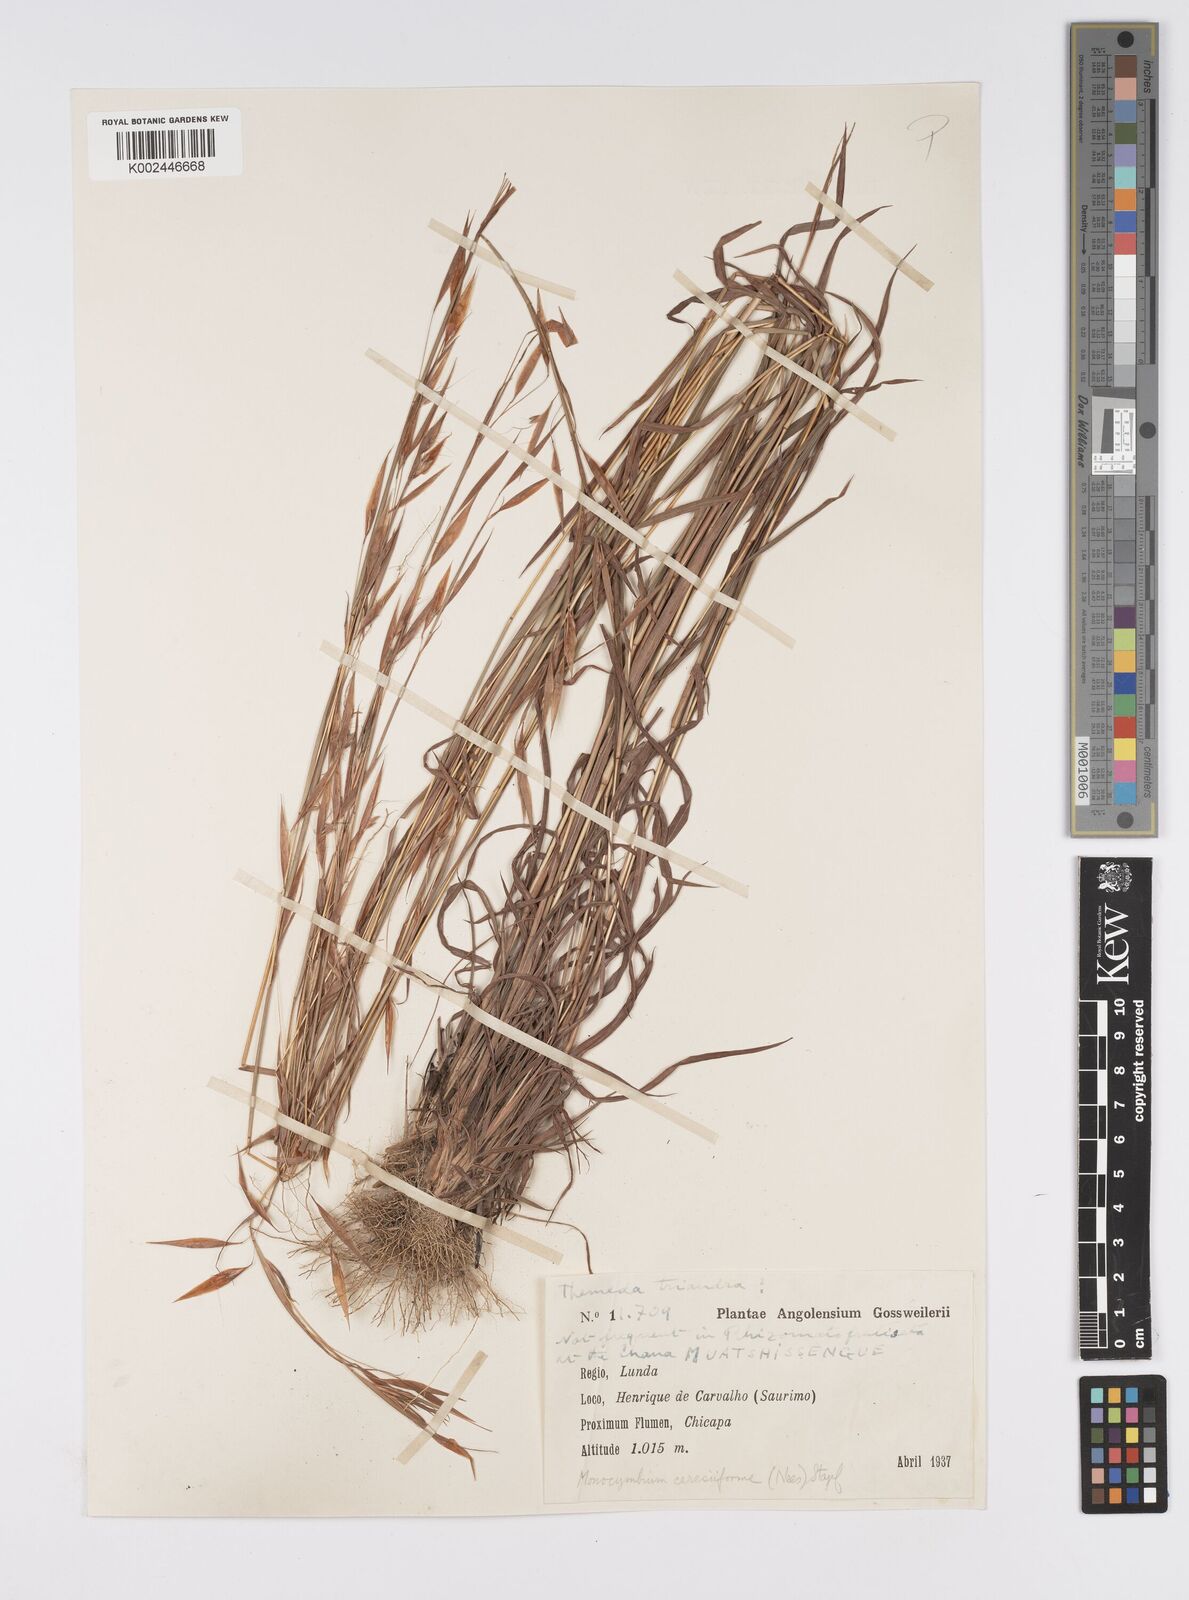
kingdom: Plantae
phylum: Tracheophyta
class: Liliopsida
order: Poales
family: Poaceae
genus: Monocymbium
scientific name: Monocymbium ceresiiforme
